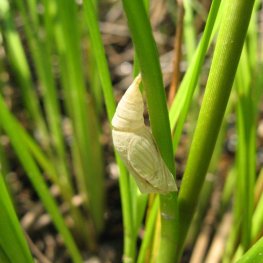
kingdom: Animalia
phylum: Arthropoda
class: Insecta
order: Lepidoptera
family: Nymphalidae
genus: Lethe
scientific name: Lethe eurydice
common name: Eyed Brown
